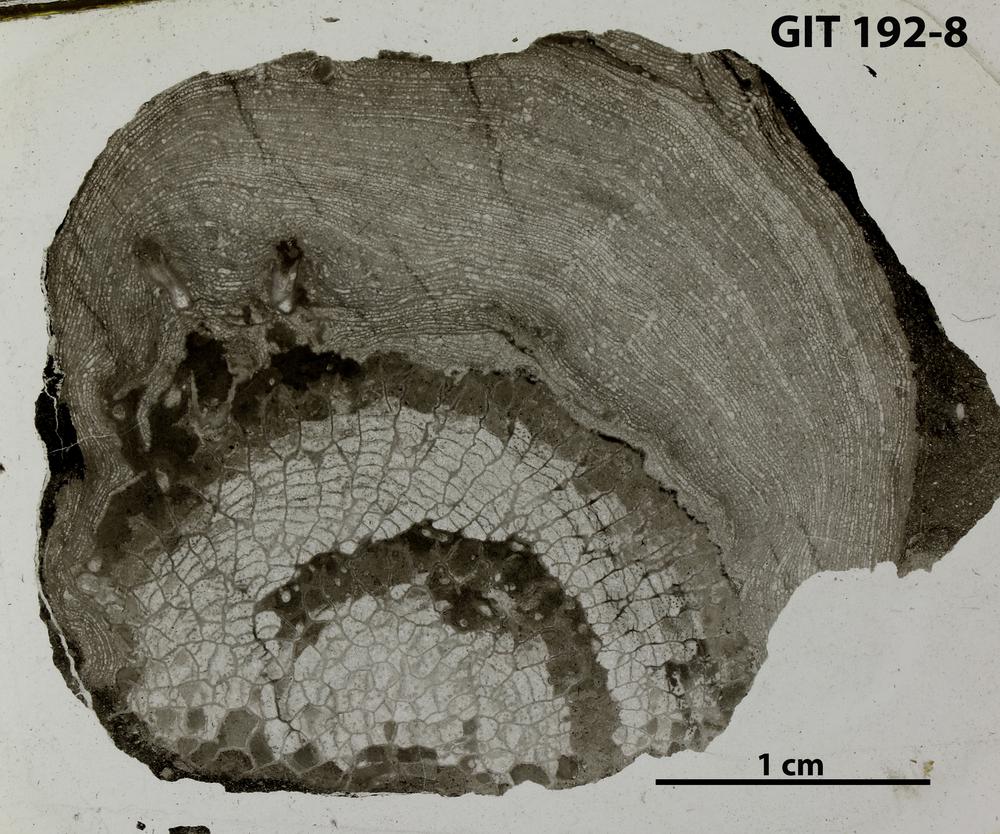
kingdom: Animalia
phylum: Porifera
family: Clathrodictyidae
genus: Clathrodictyon
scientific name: Clathrodictyon
